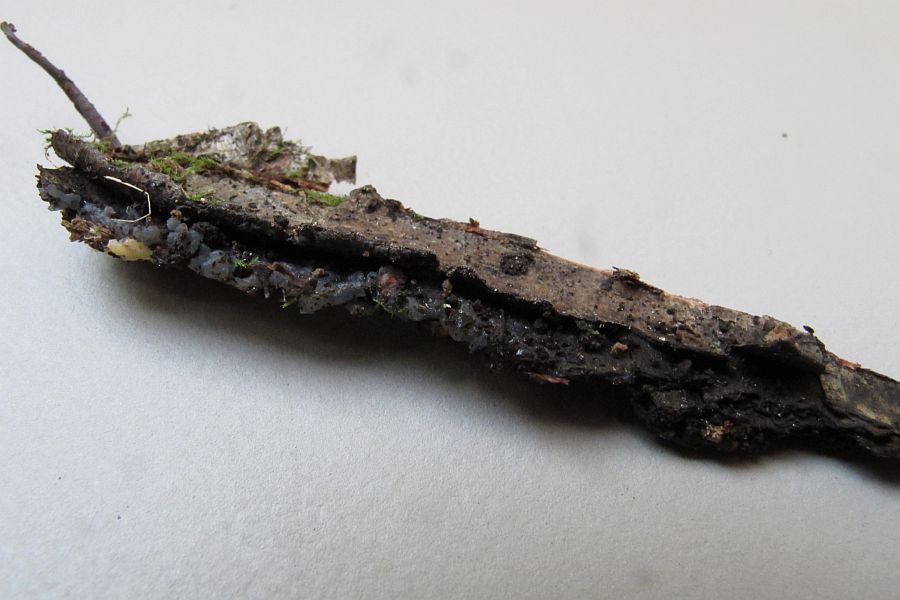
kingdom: Fungi
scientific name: Fungi
